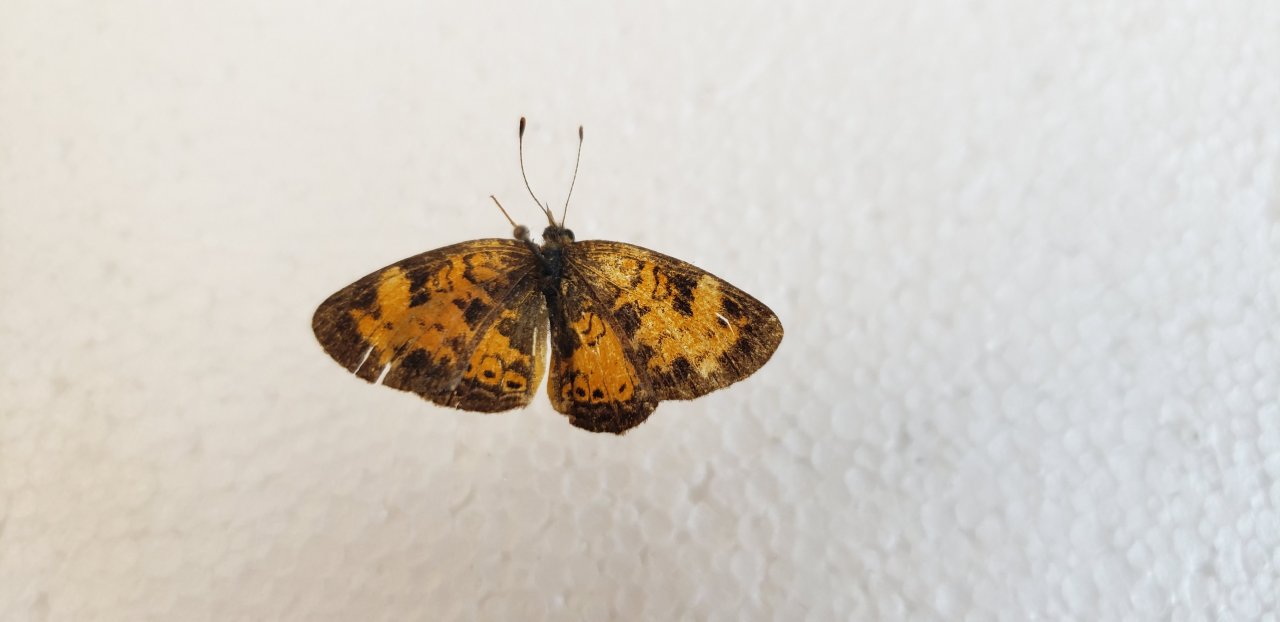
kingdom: Animalia
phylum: Arthropoda
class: Insecta
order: Lepidoptera
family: Nymphalidae
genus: Phyciodes
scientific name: Phyciodes tharos
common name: Northern Crescent
